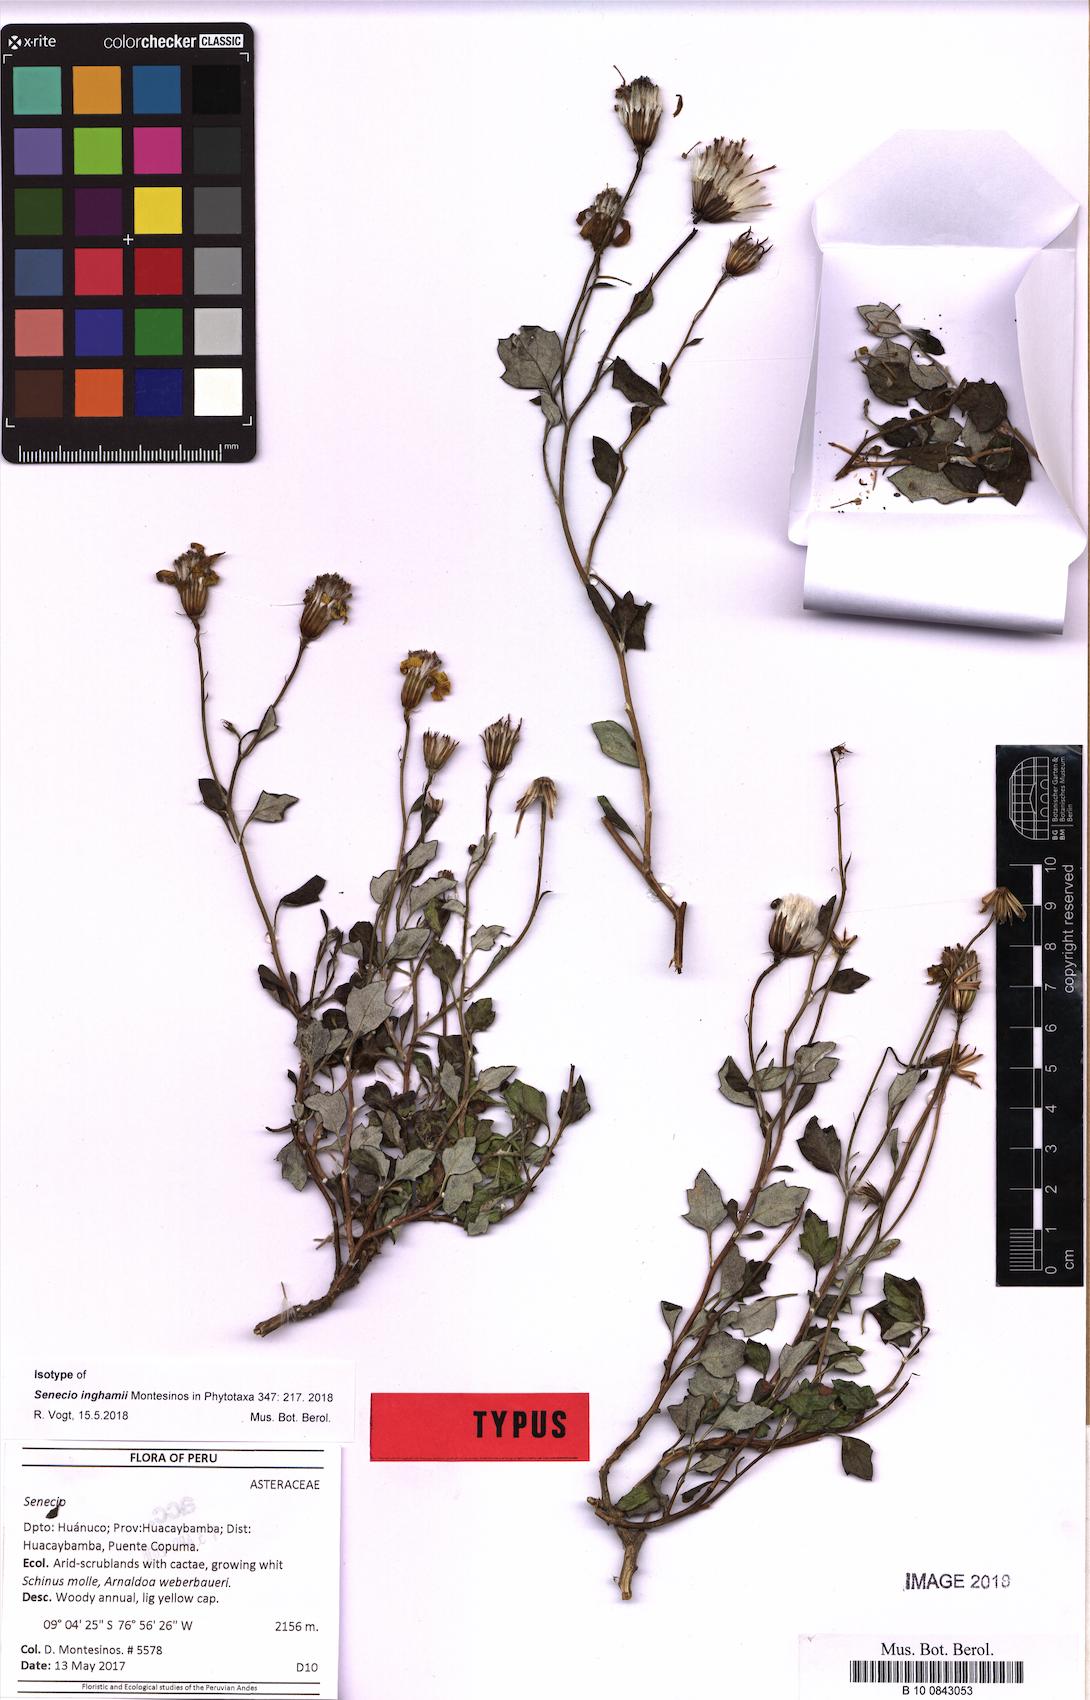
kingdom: Plantae
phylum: Tracheophyta
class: Magnoliopsida
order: Asterales
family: Asteraceae
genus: Senecio
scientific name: Senecio inghamii
